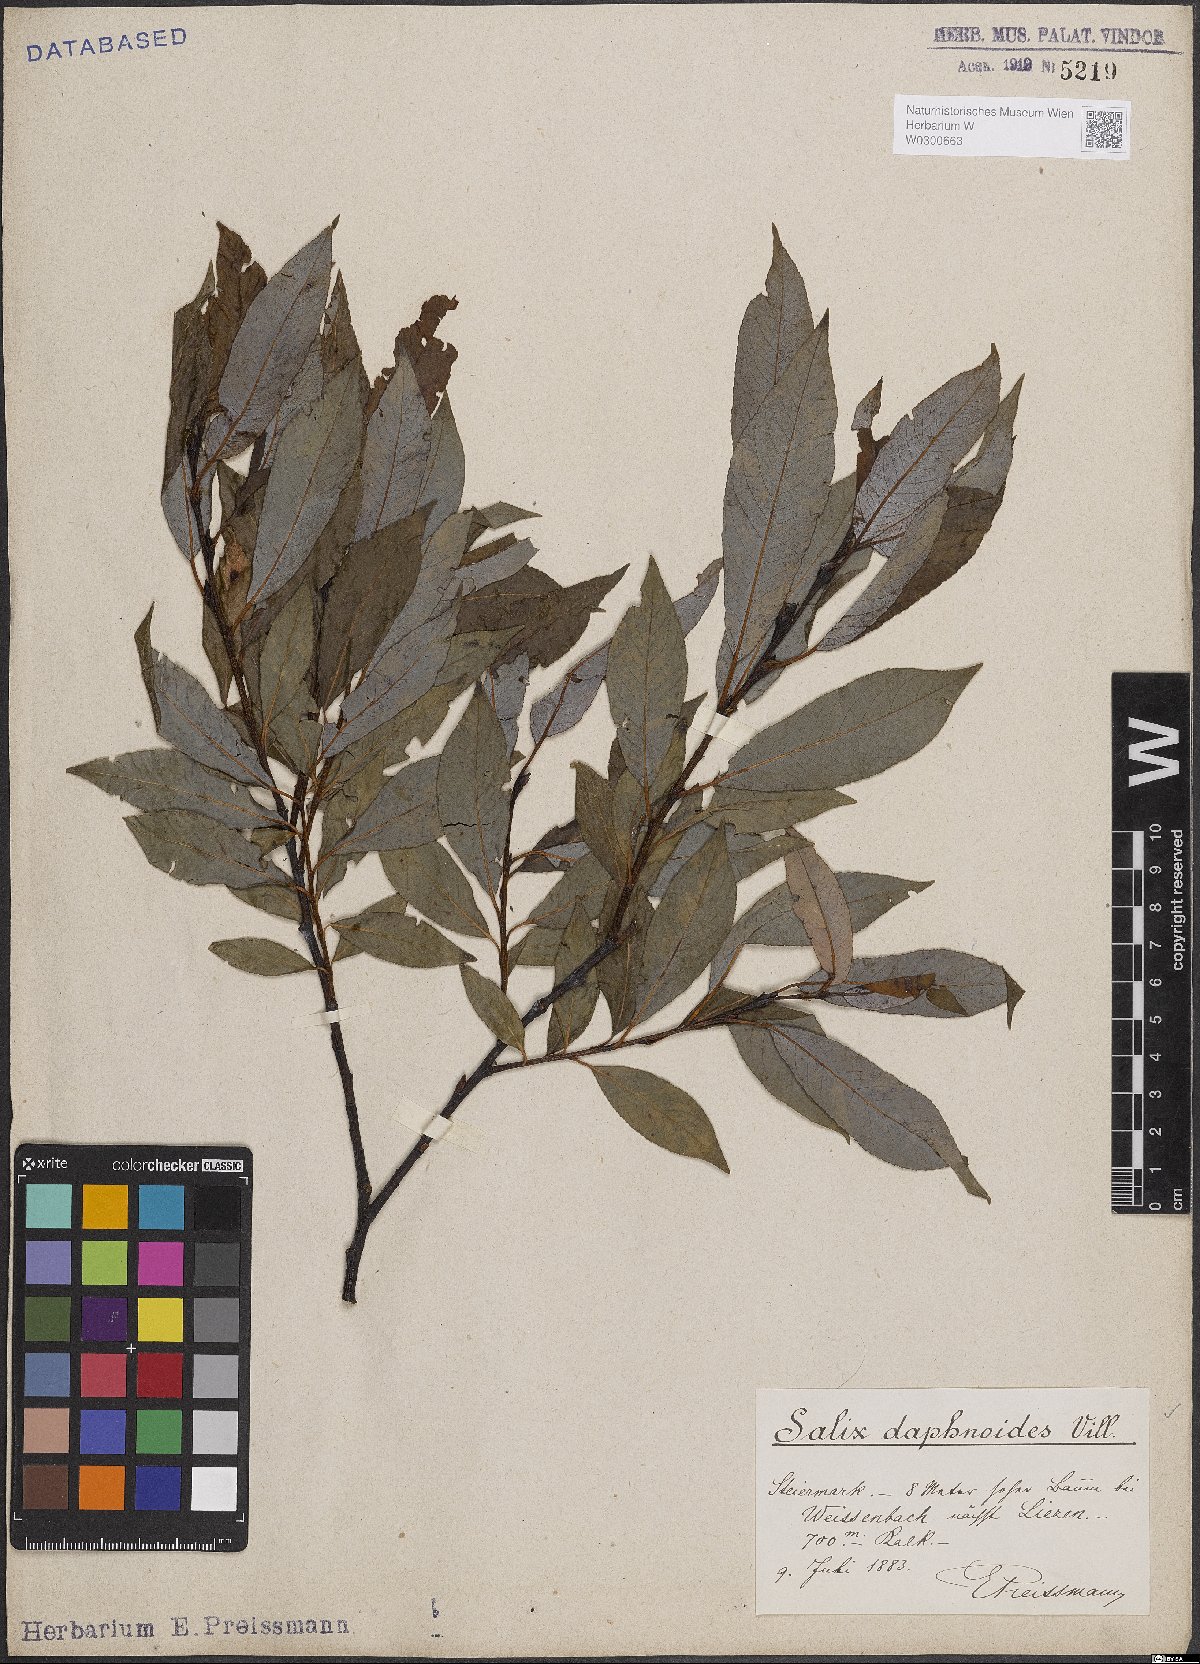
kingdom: Plantae
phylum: Tracheophyta
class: Magnoliopsida
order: Malpighiales
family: Salicaceae
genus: Salix
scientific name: Salix daphnoides
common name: European violet-willow
